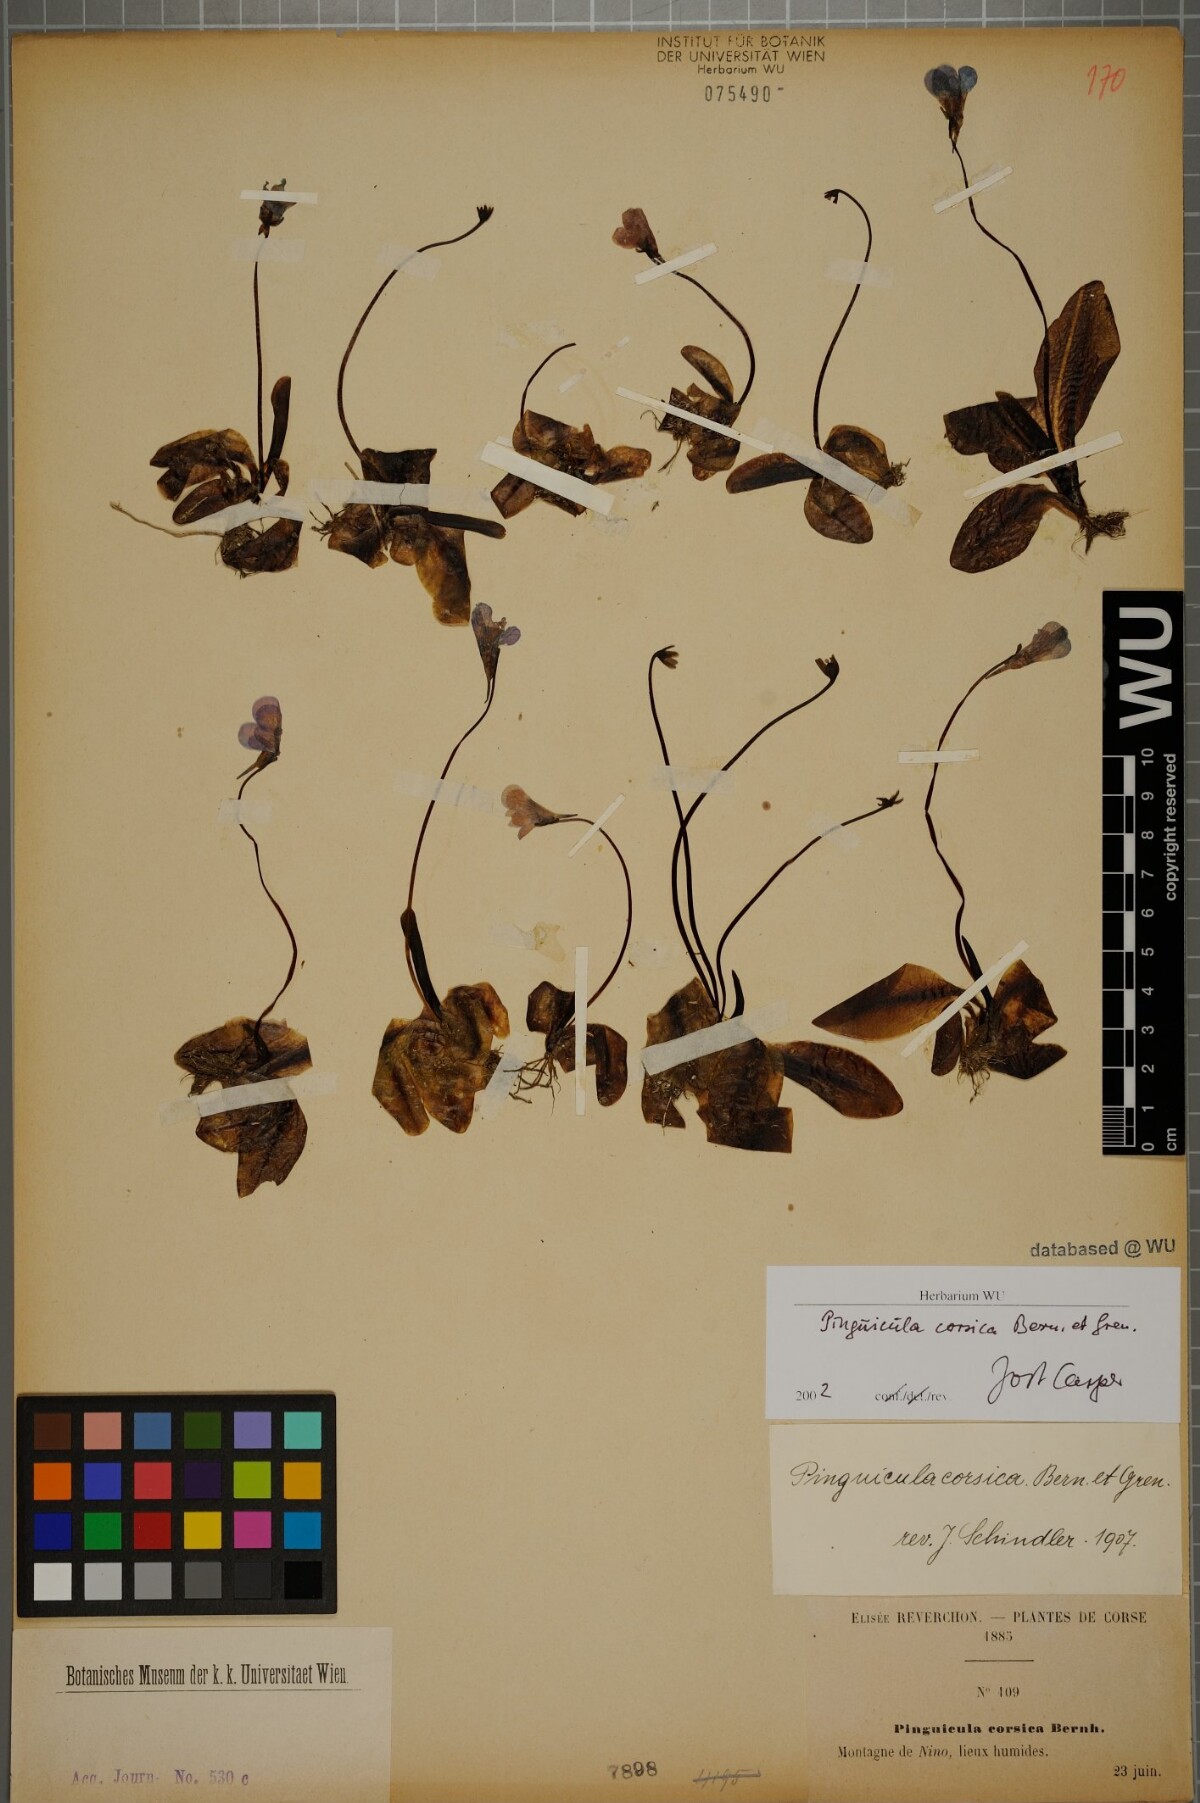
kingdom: Plantae
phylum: Tracheophyta
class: Magnoliopsida
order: Lamiales
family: Lentibulariaceae
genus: Pinguicula
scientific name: Pinguicula corsica
